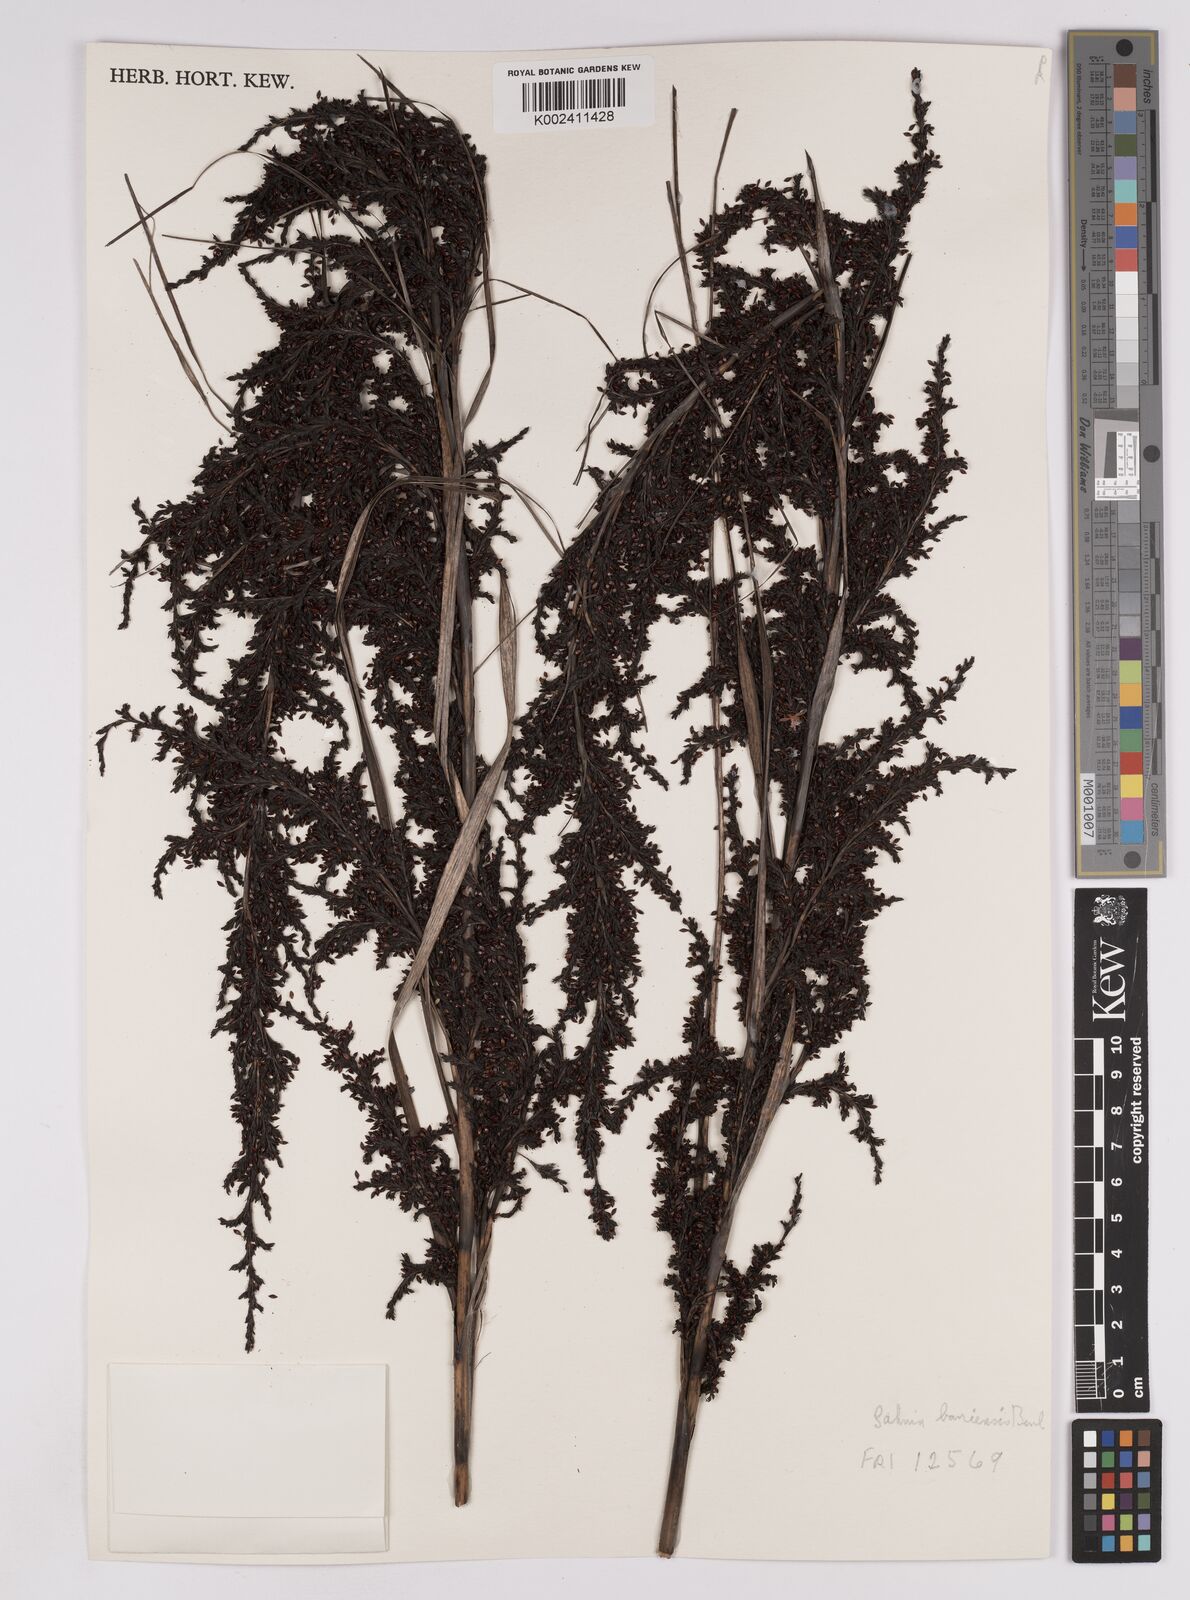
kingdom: Plantae
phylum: Tracheophyta
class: Liliopsida
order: Poales
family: Cyperaceae
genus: Gahnia
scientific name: Gahnia baniensis
